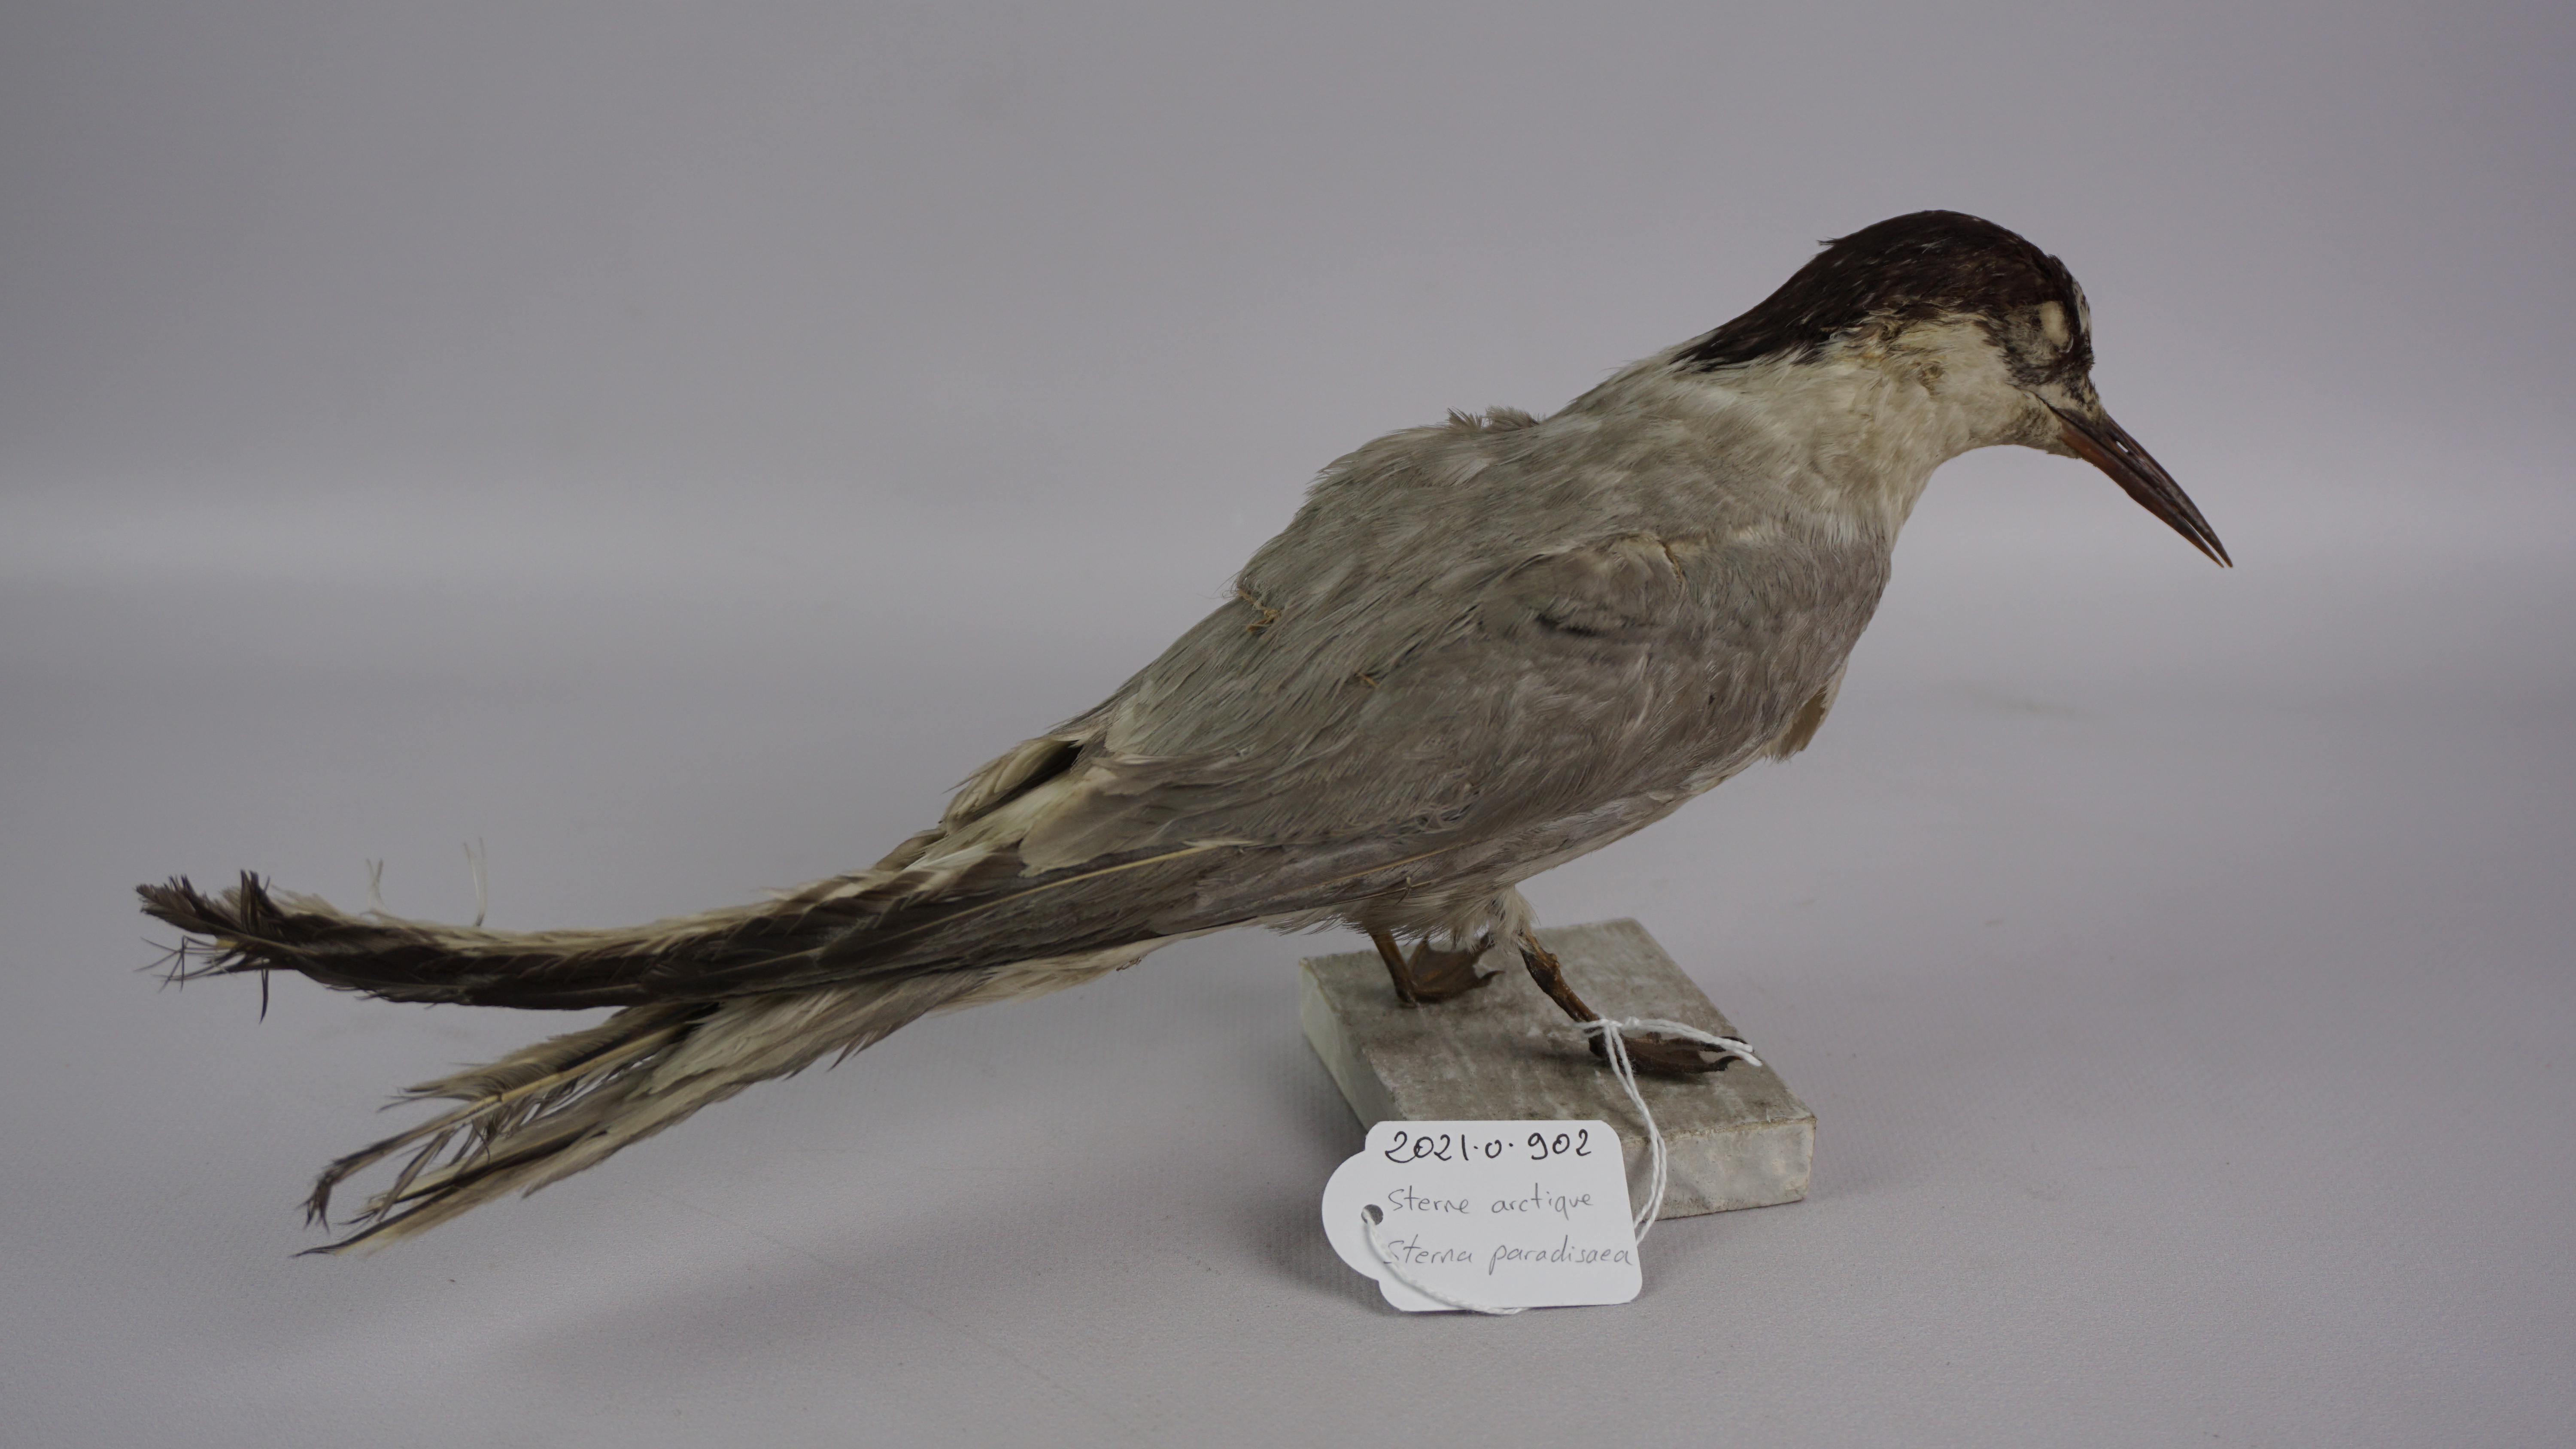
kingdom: Animalia
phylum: Chordata
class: Aves
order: Charadriiformes
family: Laridae
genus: Sterna
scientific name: Sterna paradisaea
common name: Arctic tern
